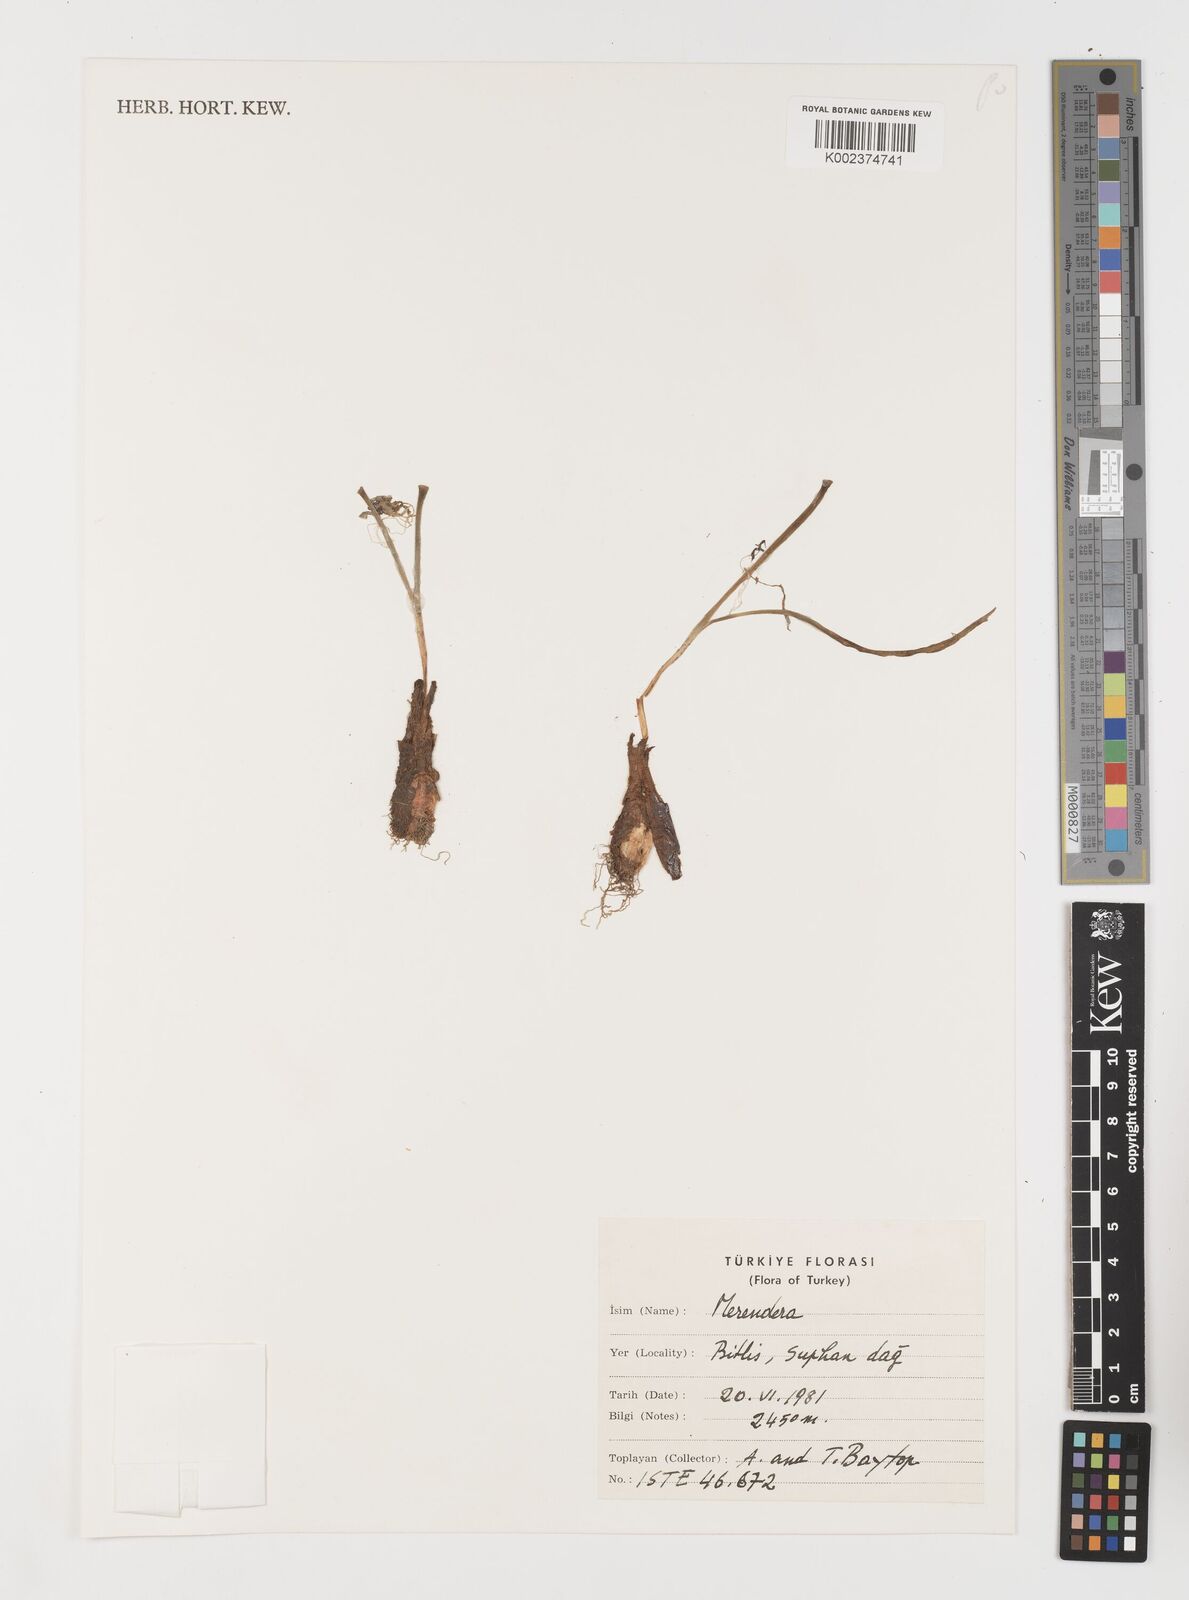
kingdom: Plantae
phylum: Tracheophyta
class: Liliopsida
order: Liliales
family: Colchicaceae
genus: Colchicum
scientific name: Colchicum
